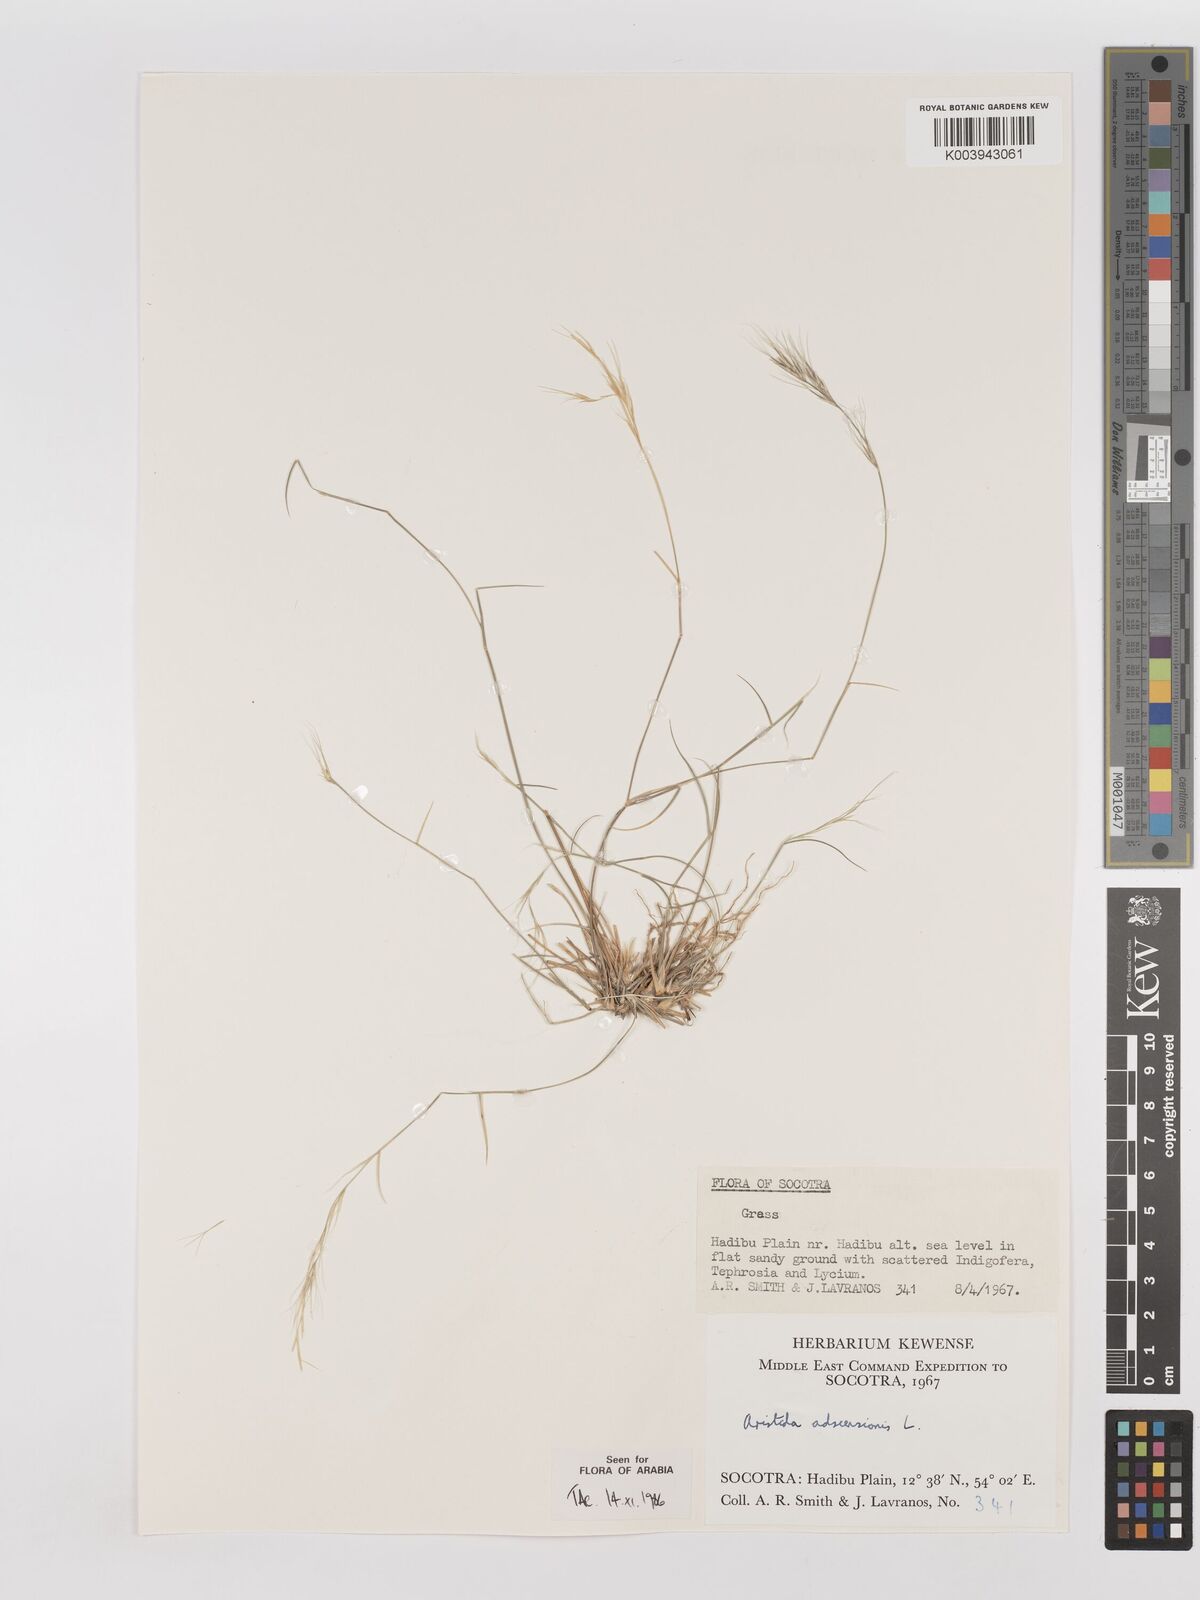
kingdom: Plantae
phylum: Tracheophyta
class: Liliopsida
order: Poales
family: Poaceae
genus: Aristida
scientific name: Aristida adscensionis
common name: Sixweeks threeawn
